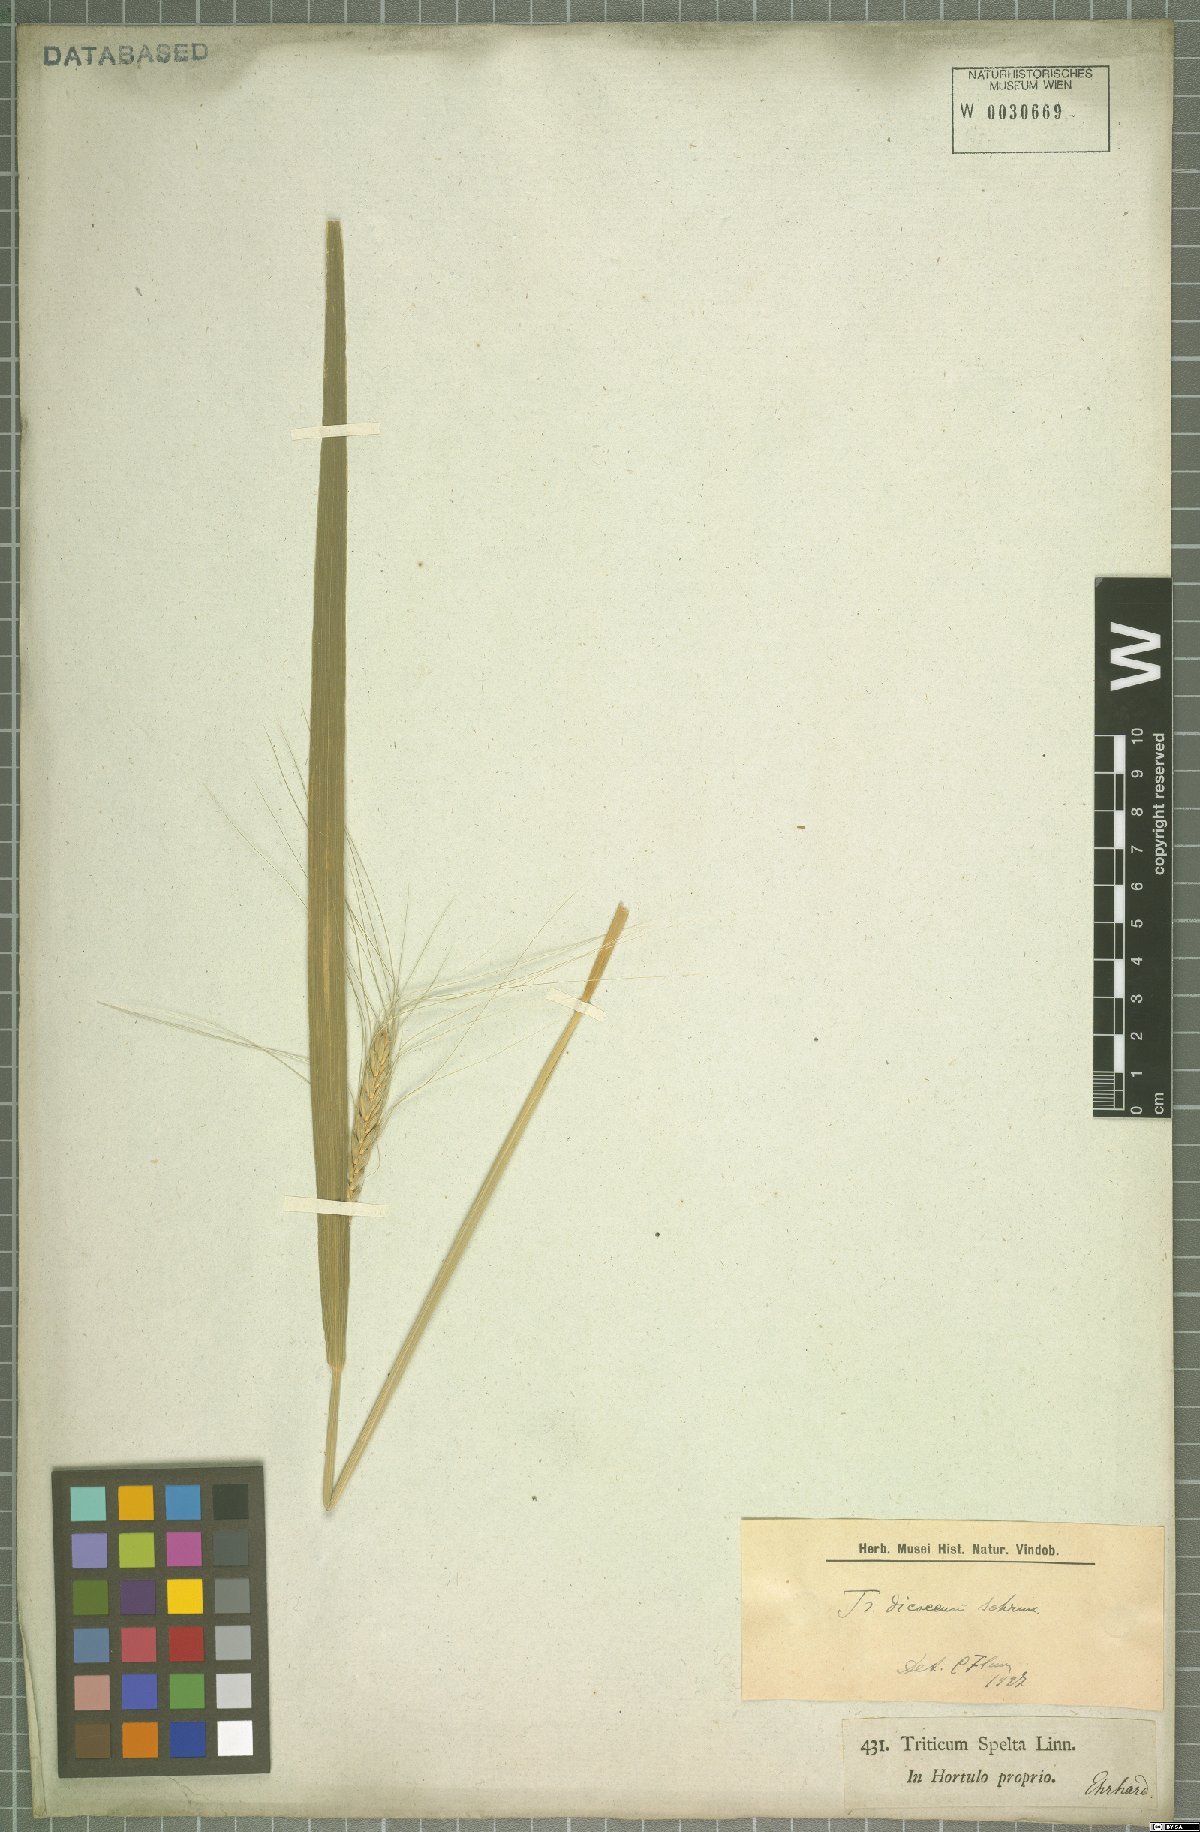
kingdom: Plantae
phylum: Tracheophyta
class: Liliopsida
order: Poales
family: Poaceae
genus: Triticum
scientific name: Triticum turgidum
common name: Rivet wheat
